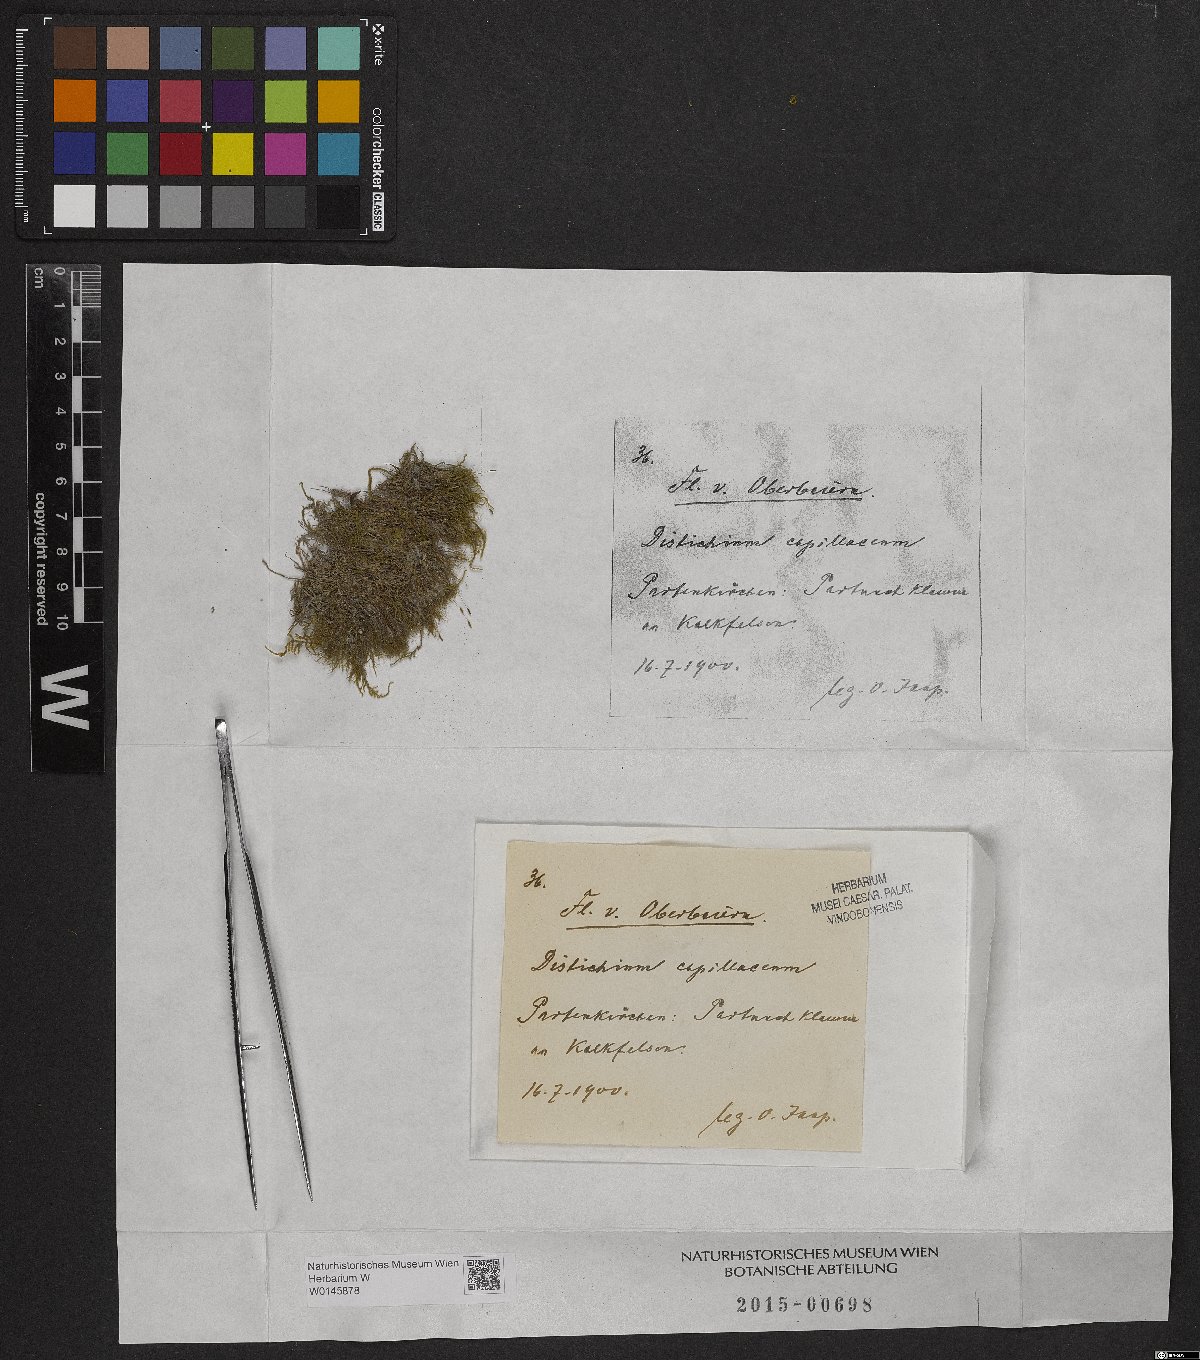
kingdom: Plantae
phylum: Bryophyta
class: Bryopsida
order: Scouleriales
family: Distichiaceae
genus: Distichium
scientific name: Distichium capillaceum
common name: Erect-fruited iris moss
